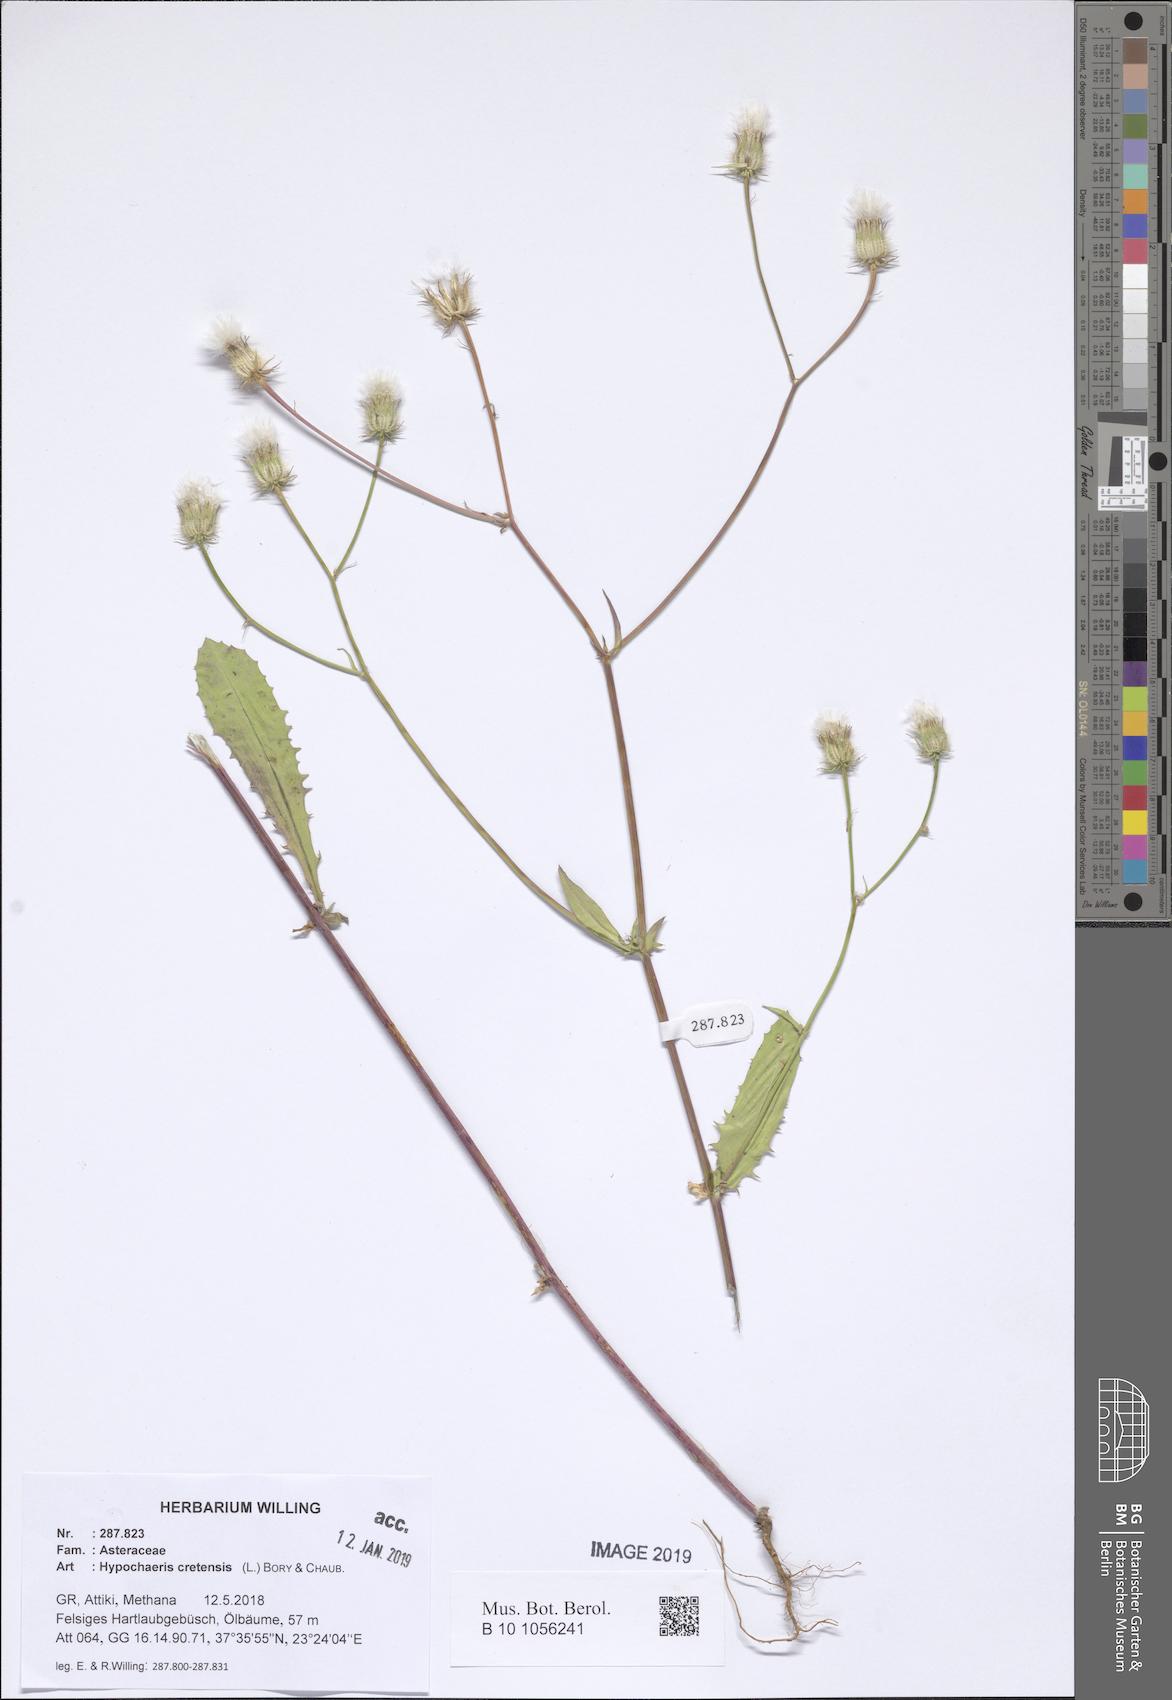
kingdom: Plantae
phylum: Tracheophyta
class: Magnoliopsida
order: Asterales
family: Asteraceae
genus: Hypochaeris
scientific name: Hypochaeris cretensis
